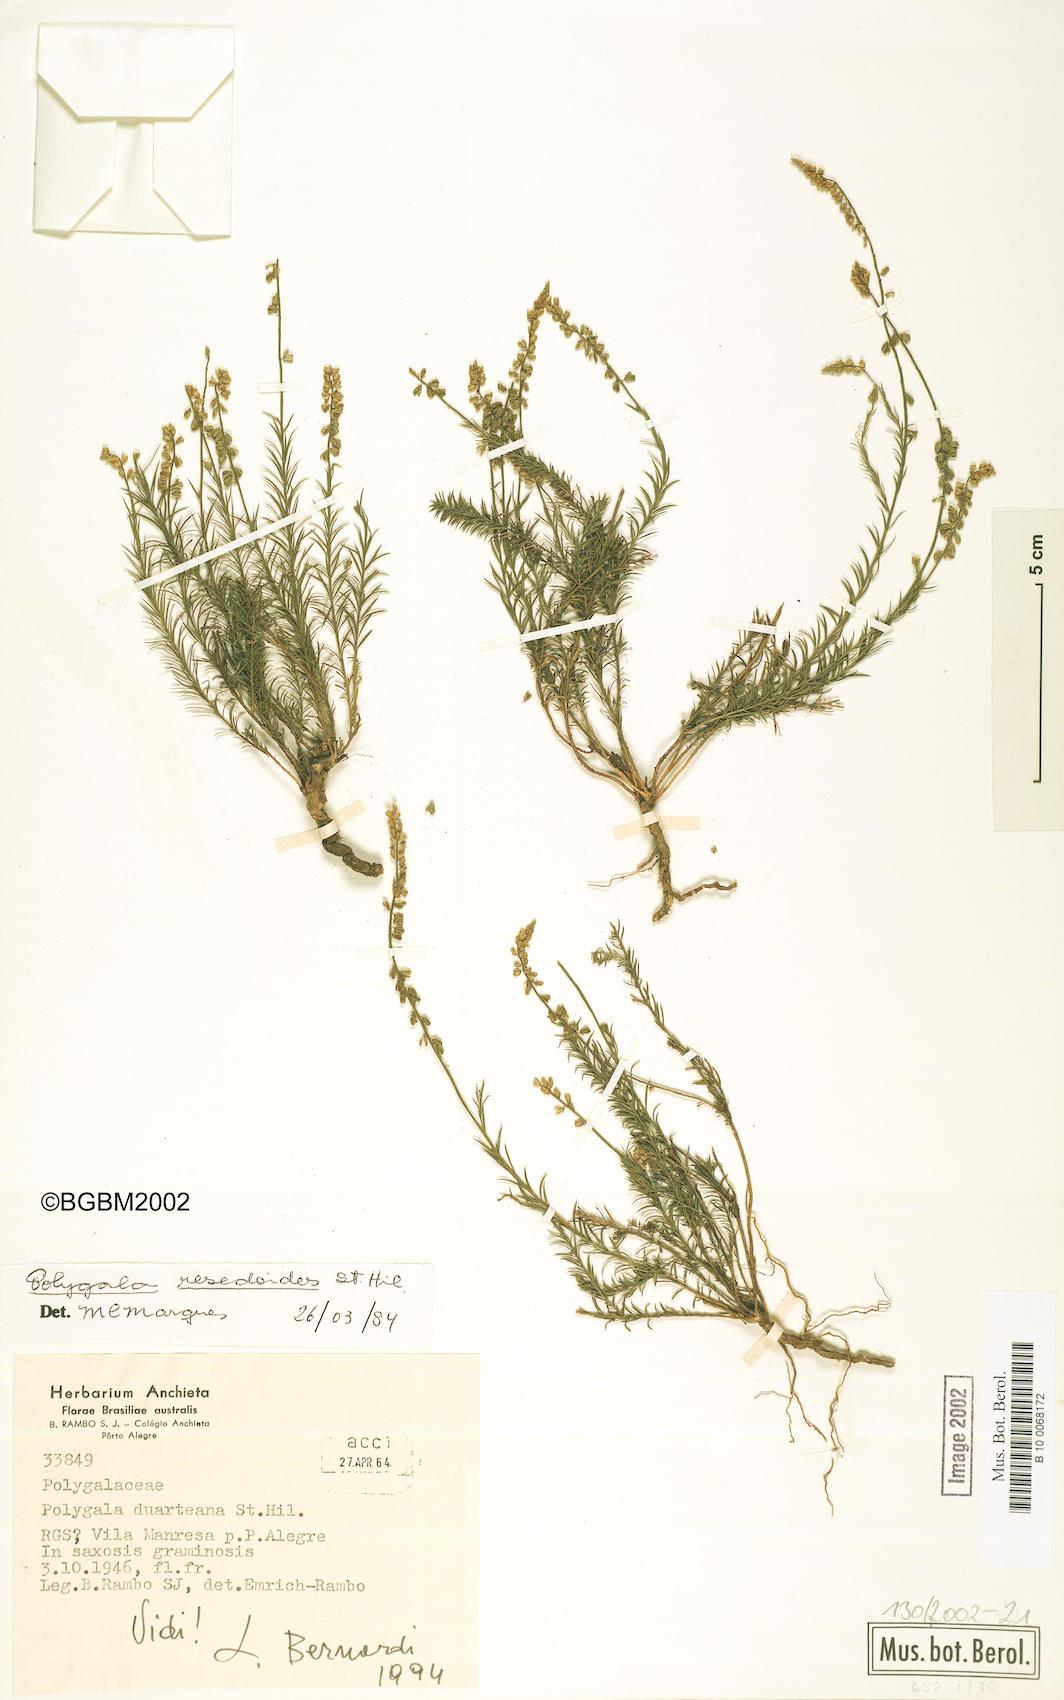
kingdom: Plantae
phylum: Tracheophyta
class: Magnoliopsida
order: Fabales
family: Polygalaceae
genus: Polygala
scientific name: Polygala resedoides
